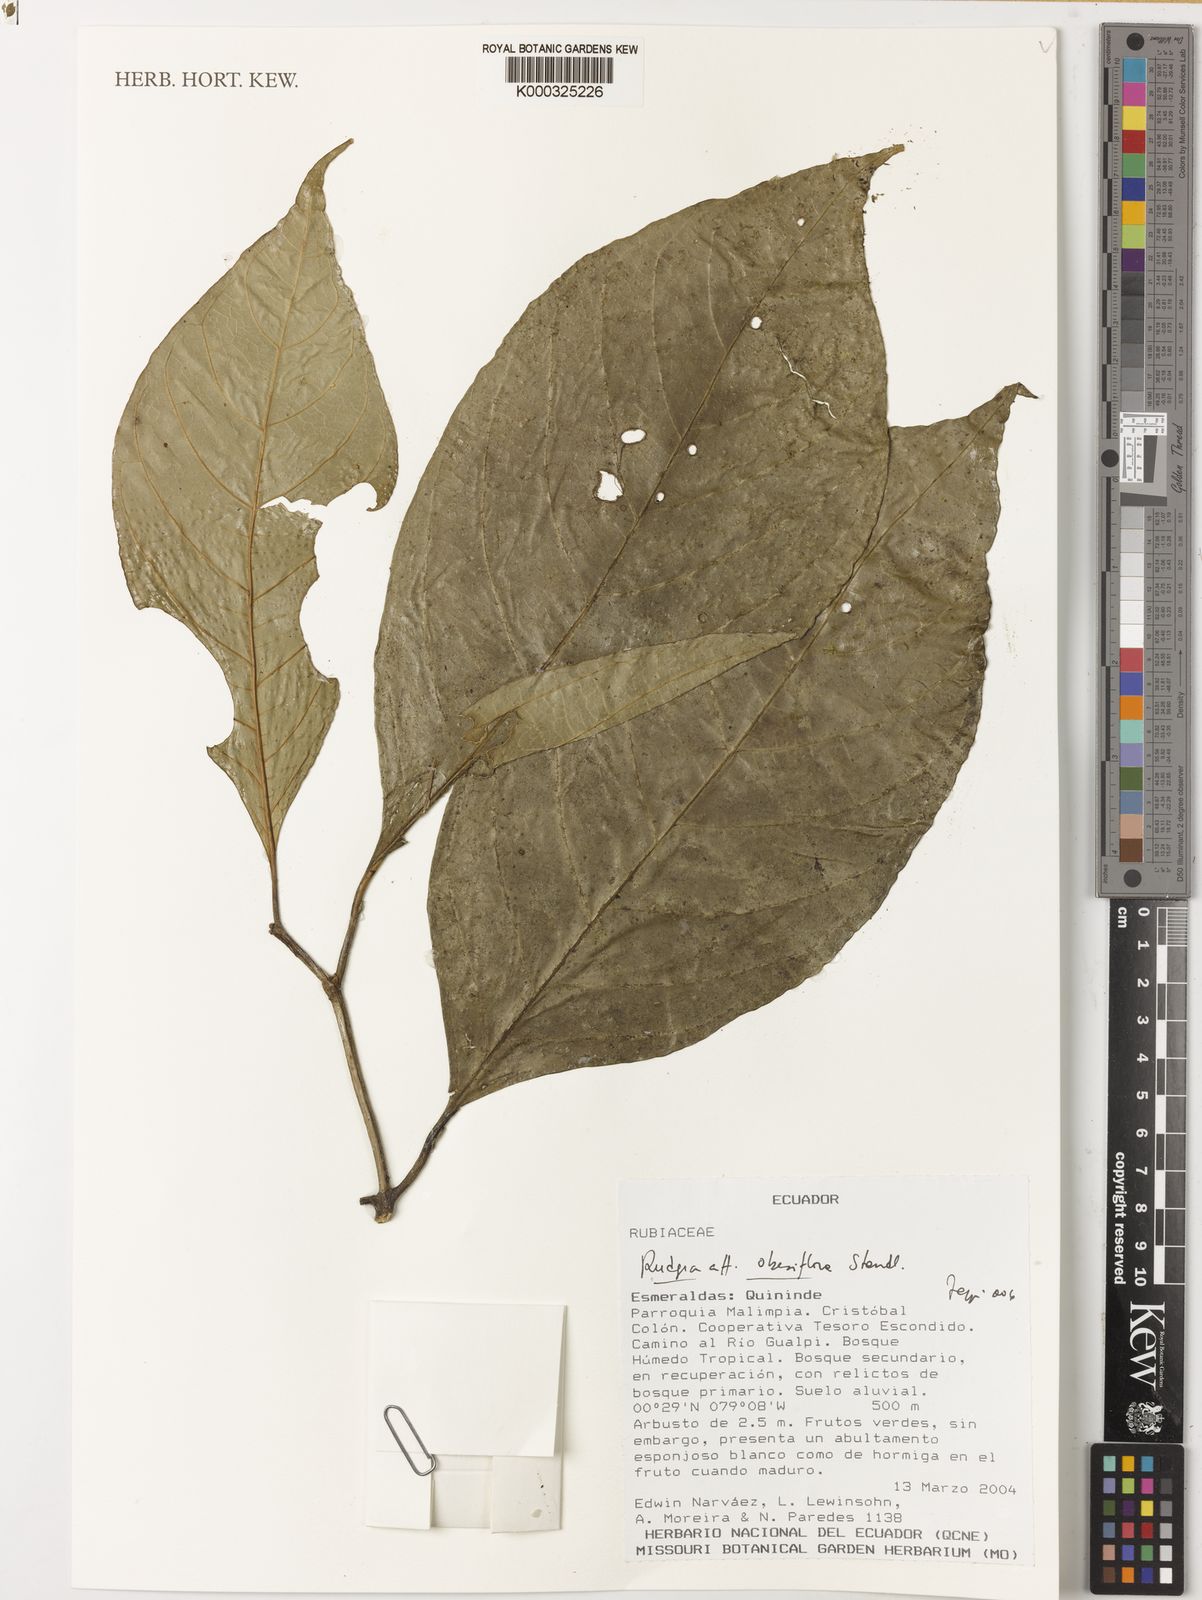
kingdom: Plantae
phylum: Tracheophyta
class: Magnoliopsida
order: Gentianales
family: Rubiaceae
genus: Rudgea
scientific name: Rudgea obesiflora
